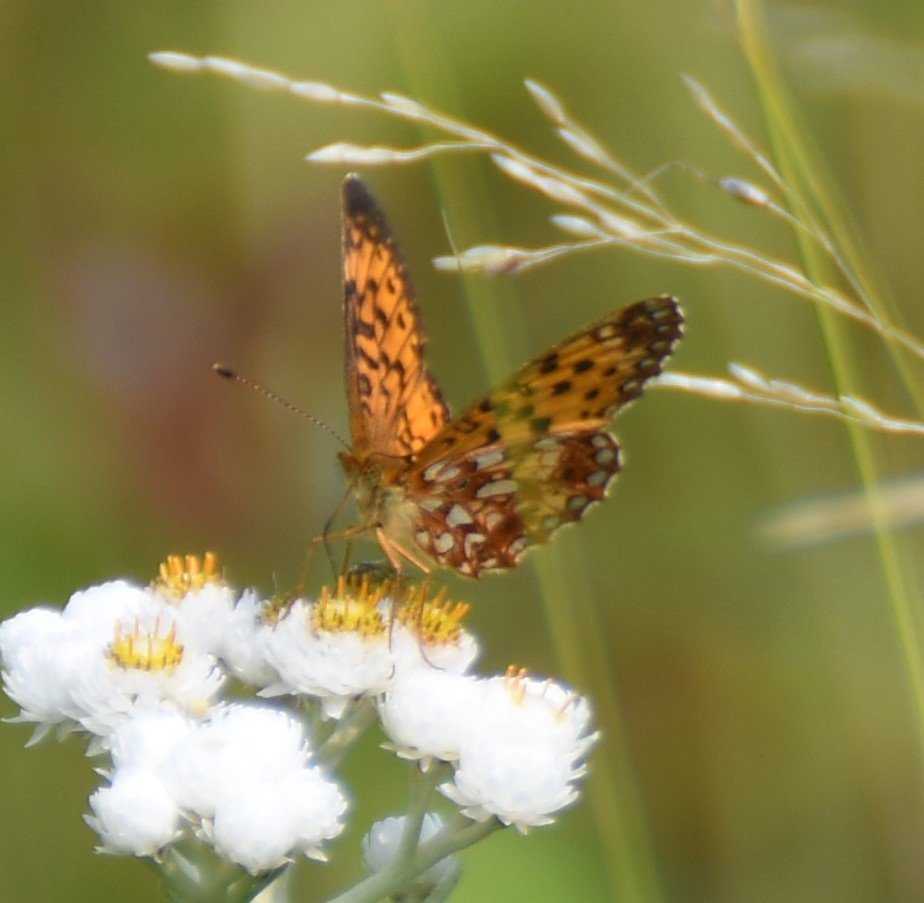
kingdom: Animalia
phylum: Arthropoda
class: Insecta
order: Lepidoptera
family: Nymphalidae
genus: Boloria
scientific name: Boloria selene
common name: Silver-bordered Fritillary
